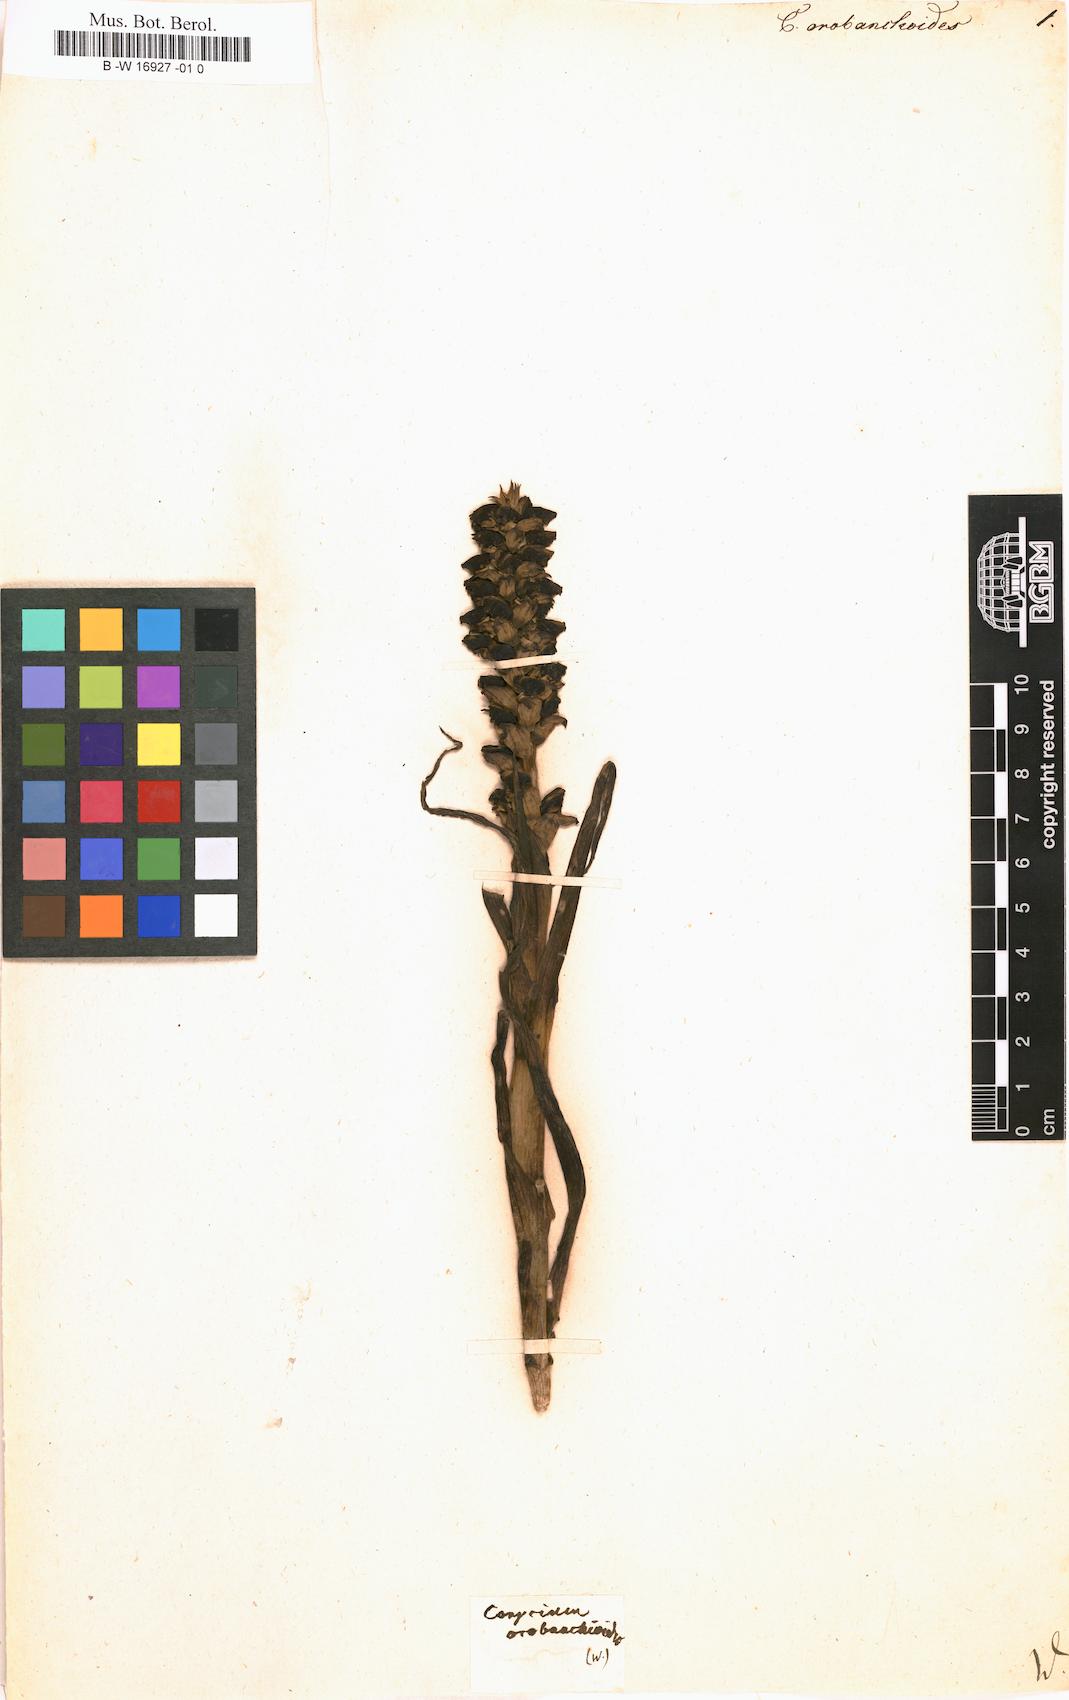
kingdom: Plantae
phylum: Tracheophyta
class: Liliopsida
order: Asparagales
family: Orchidaceae
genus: Corycium
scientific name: Corycium orobanchoides
